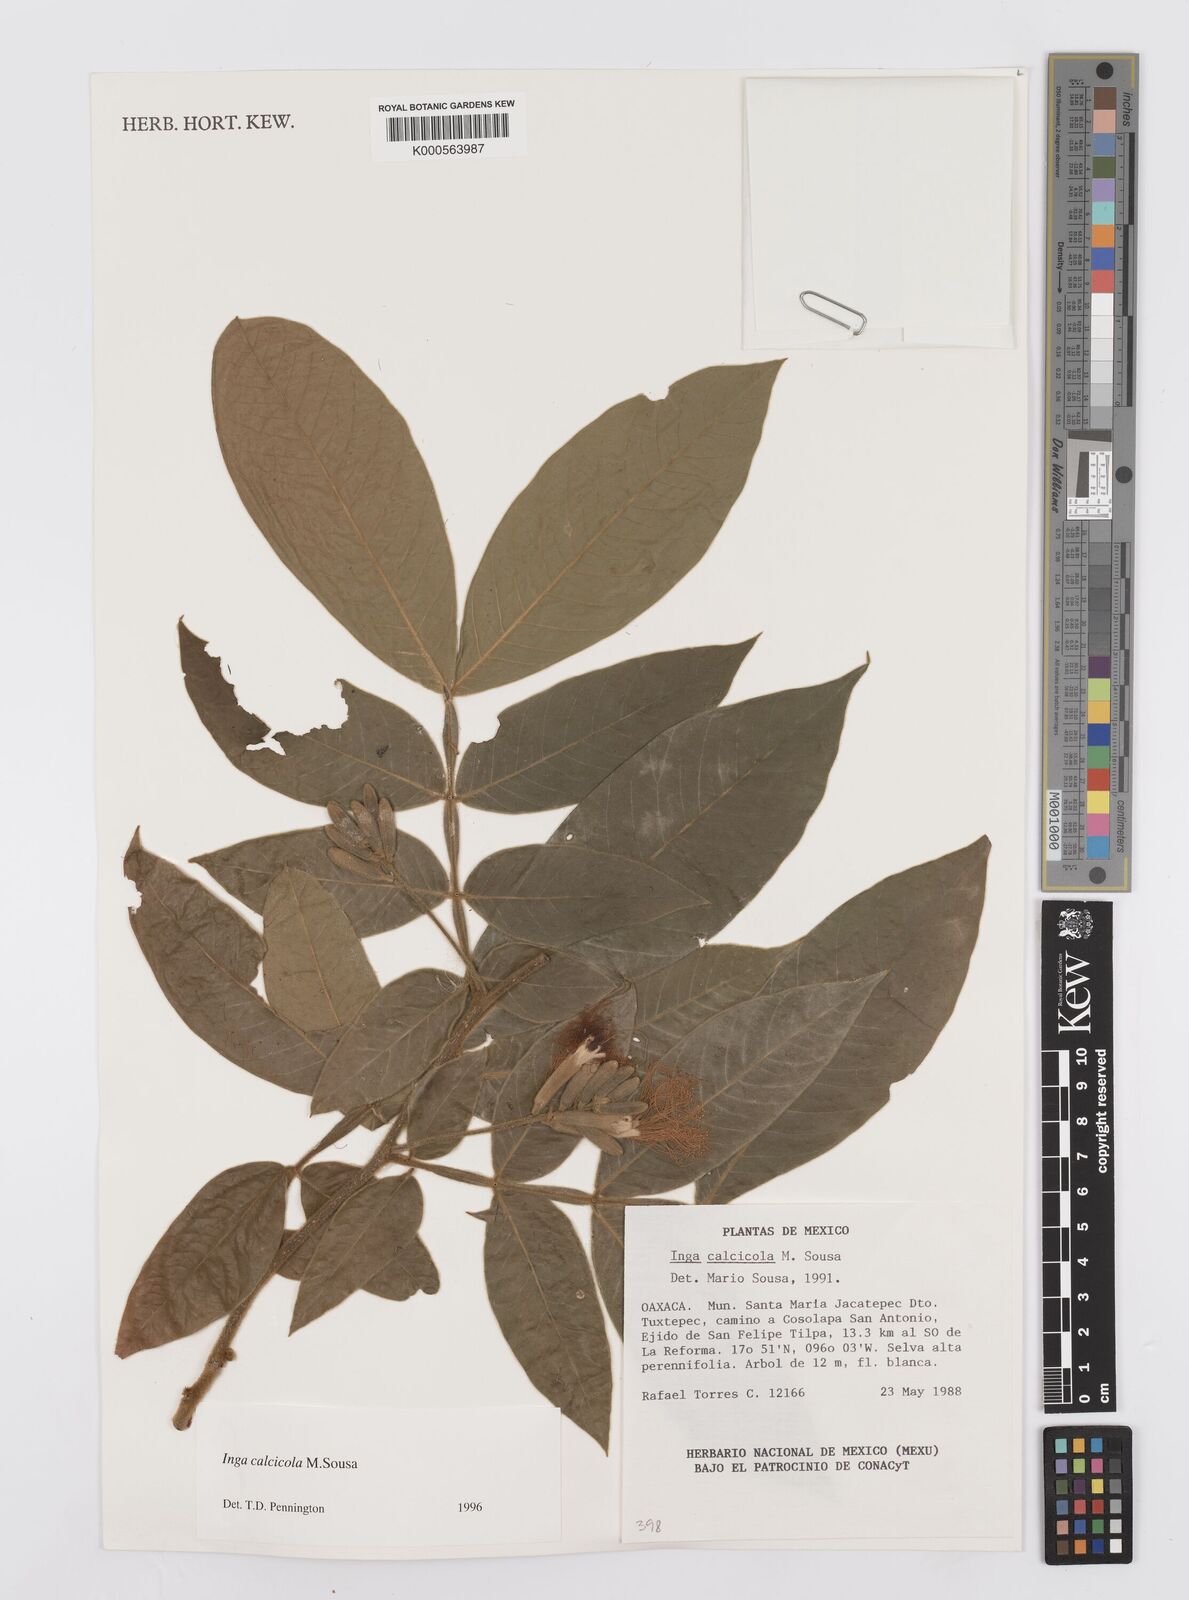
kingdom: Plantae
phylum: Tracheophyta
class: Magnoliopsida
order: Fabales
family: Fabaceae
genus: Inga
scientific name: Inga calcicola
